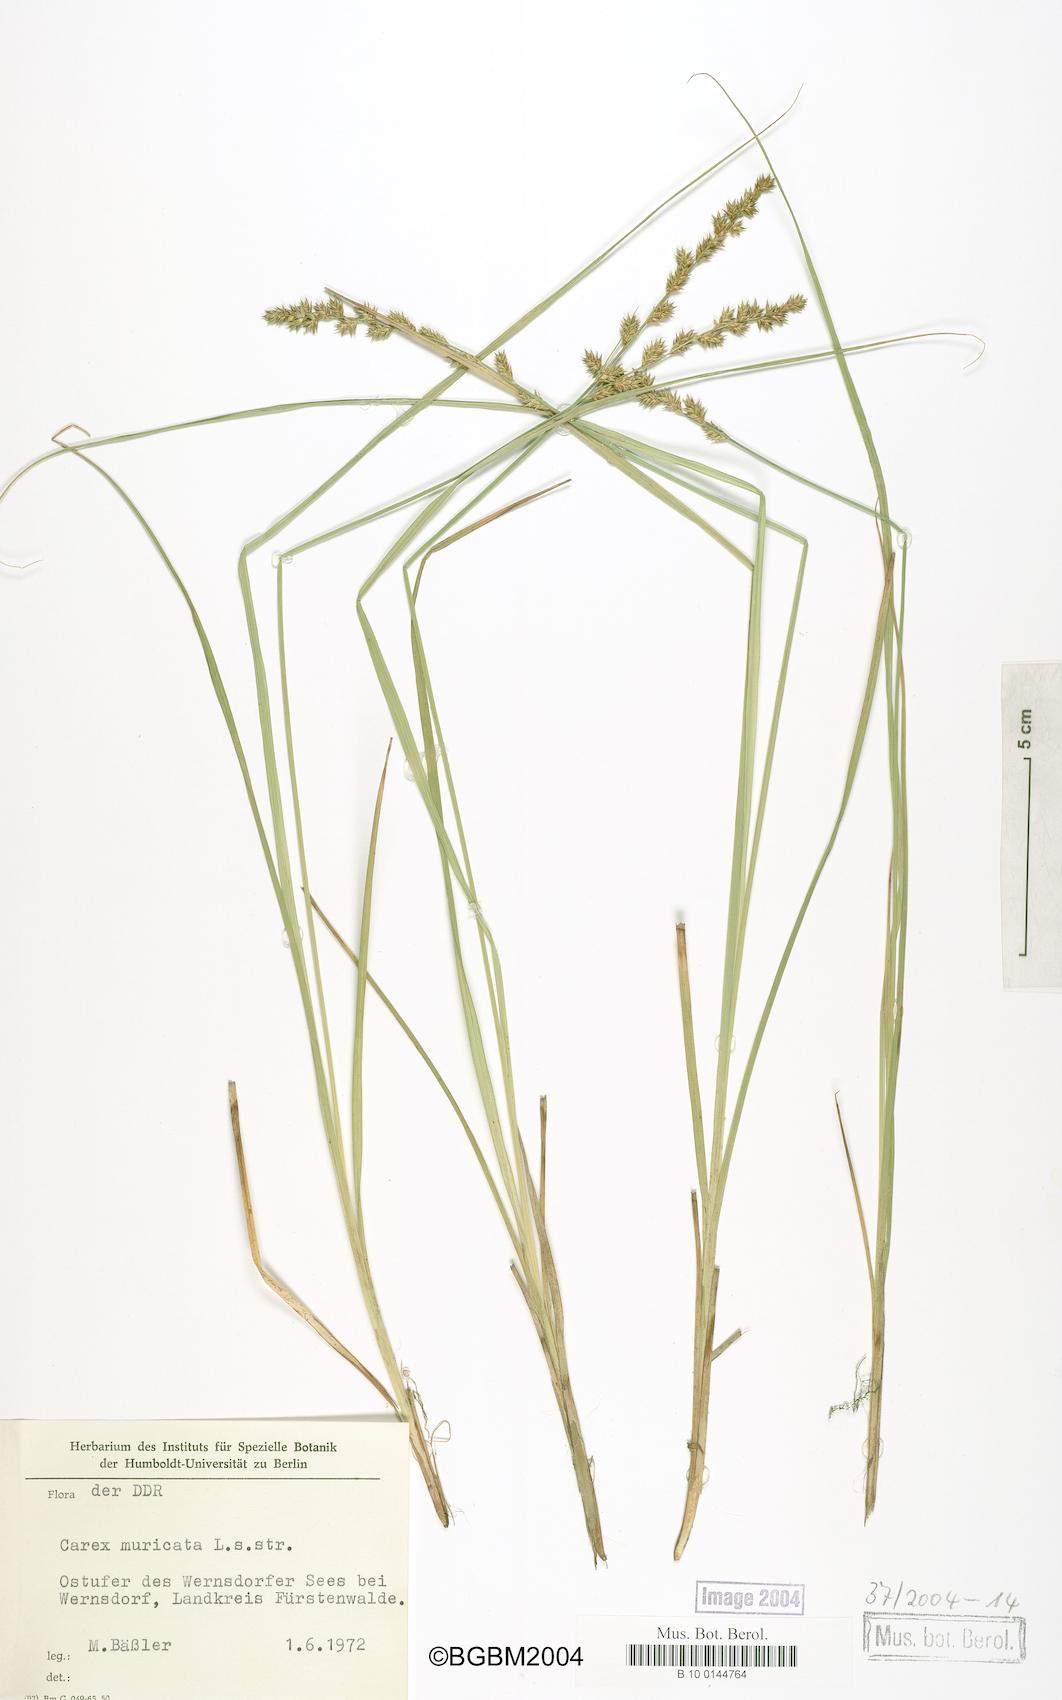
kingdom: Plantae
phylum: Tracheophyta
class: Liliopsida
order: Poales
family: Cyperaceae
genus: Carex
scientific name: Carex muricata
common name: Rough sedge
